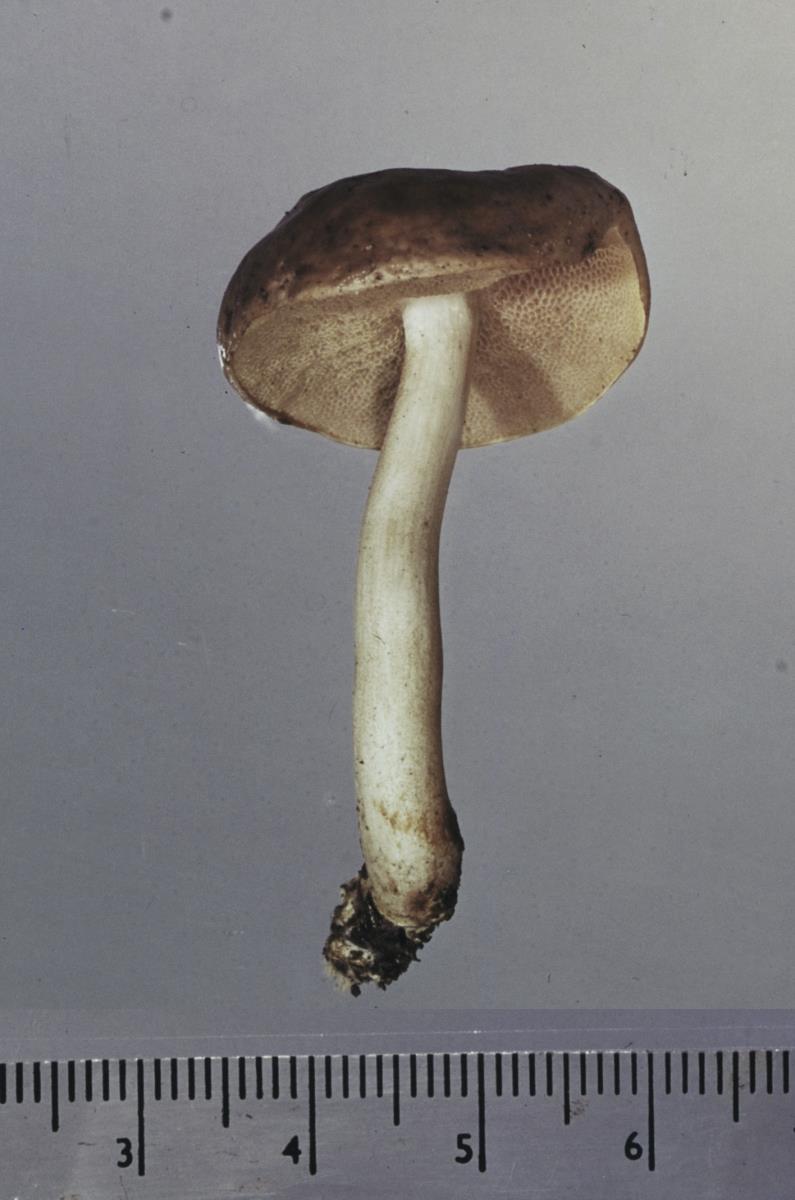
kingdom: Fungi
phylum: Basidiomycota
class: Agaricomycetes
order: Boletales
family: Boletaceae
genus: Fistulinella
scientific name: Fistulinella viscida
